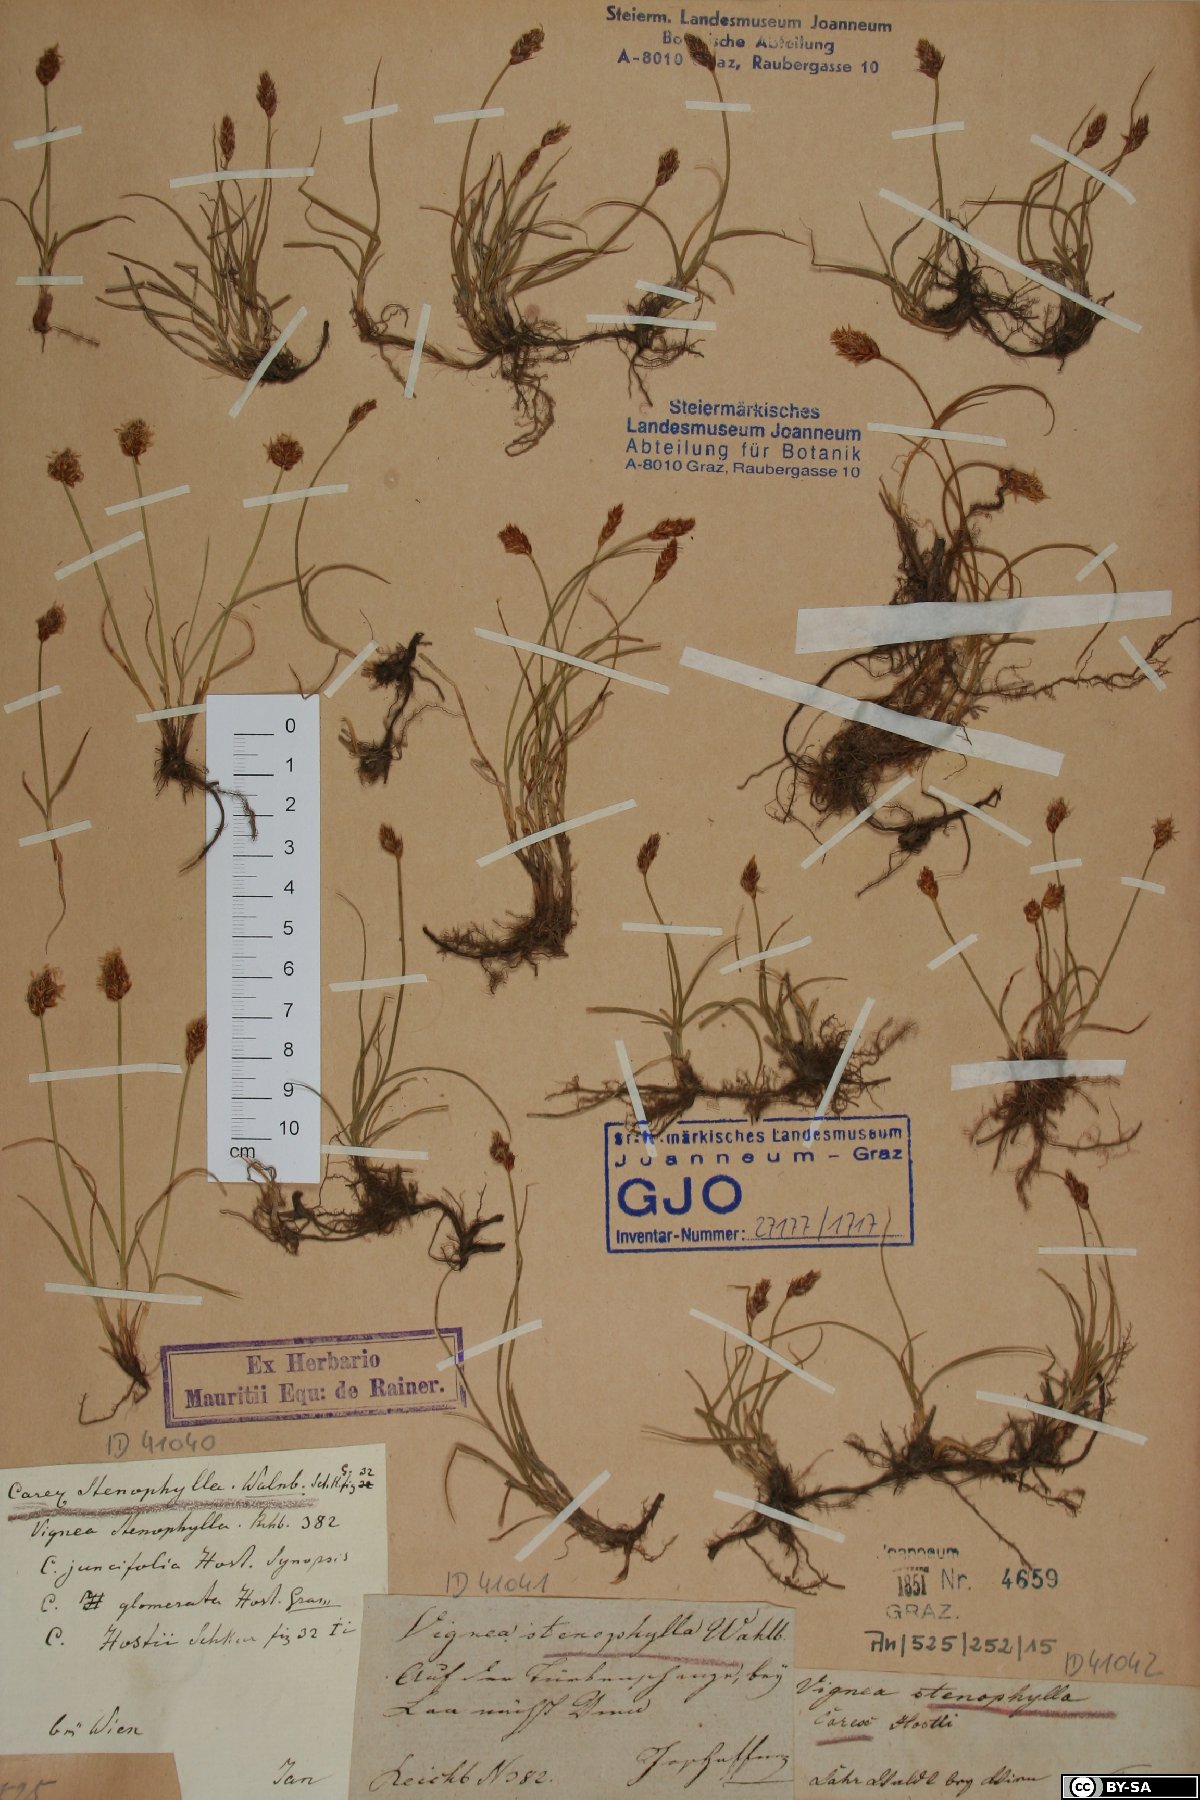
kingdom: Plantae
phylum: Tracheophyta
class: Liliopsida
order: Poales
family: Cyperaceae
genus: Carex
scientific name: Carex stenophylla
